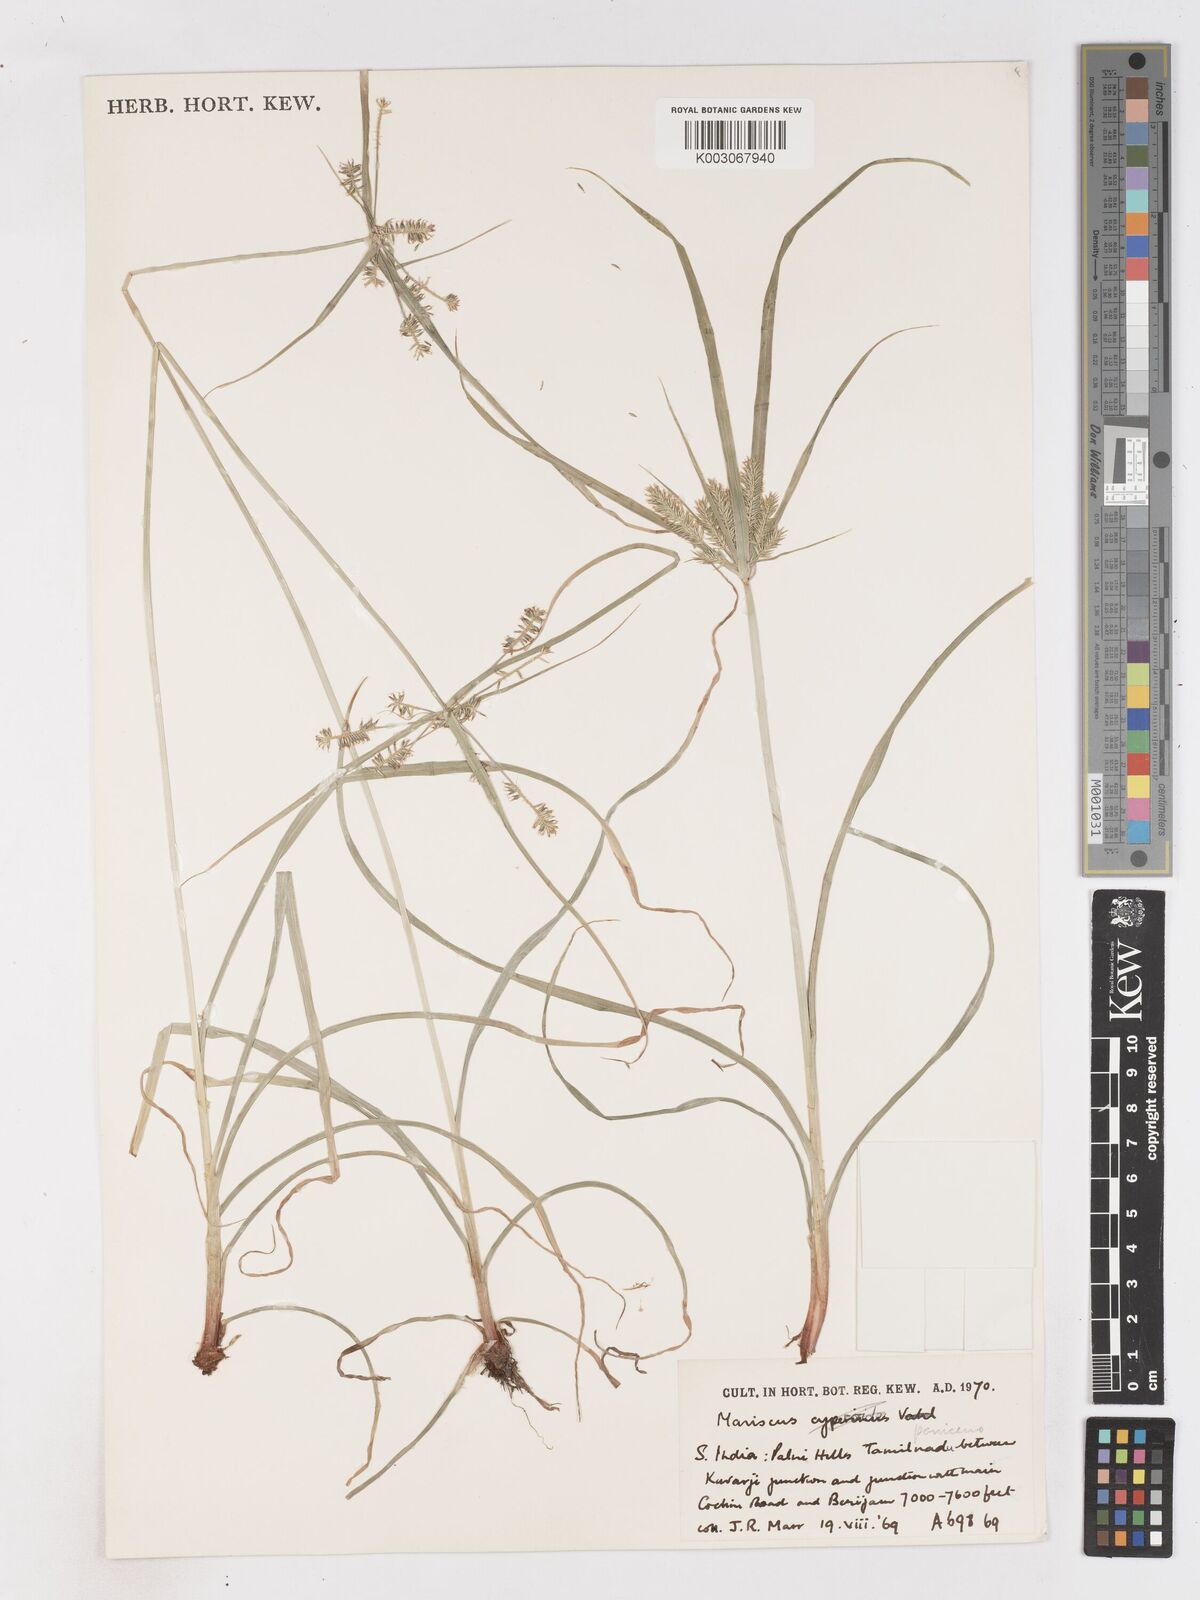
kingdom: Plantae
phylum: Tracheophyta
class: Liliopsida
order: Poales
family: Cyperaceae
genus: Cyperus
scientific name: Cyperus paniceus
